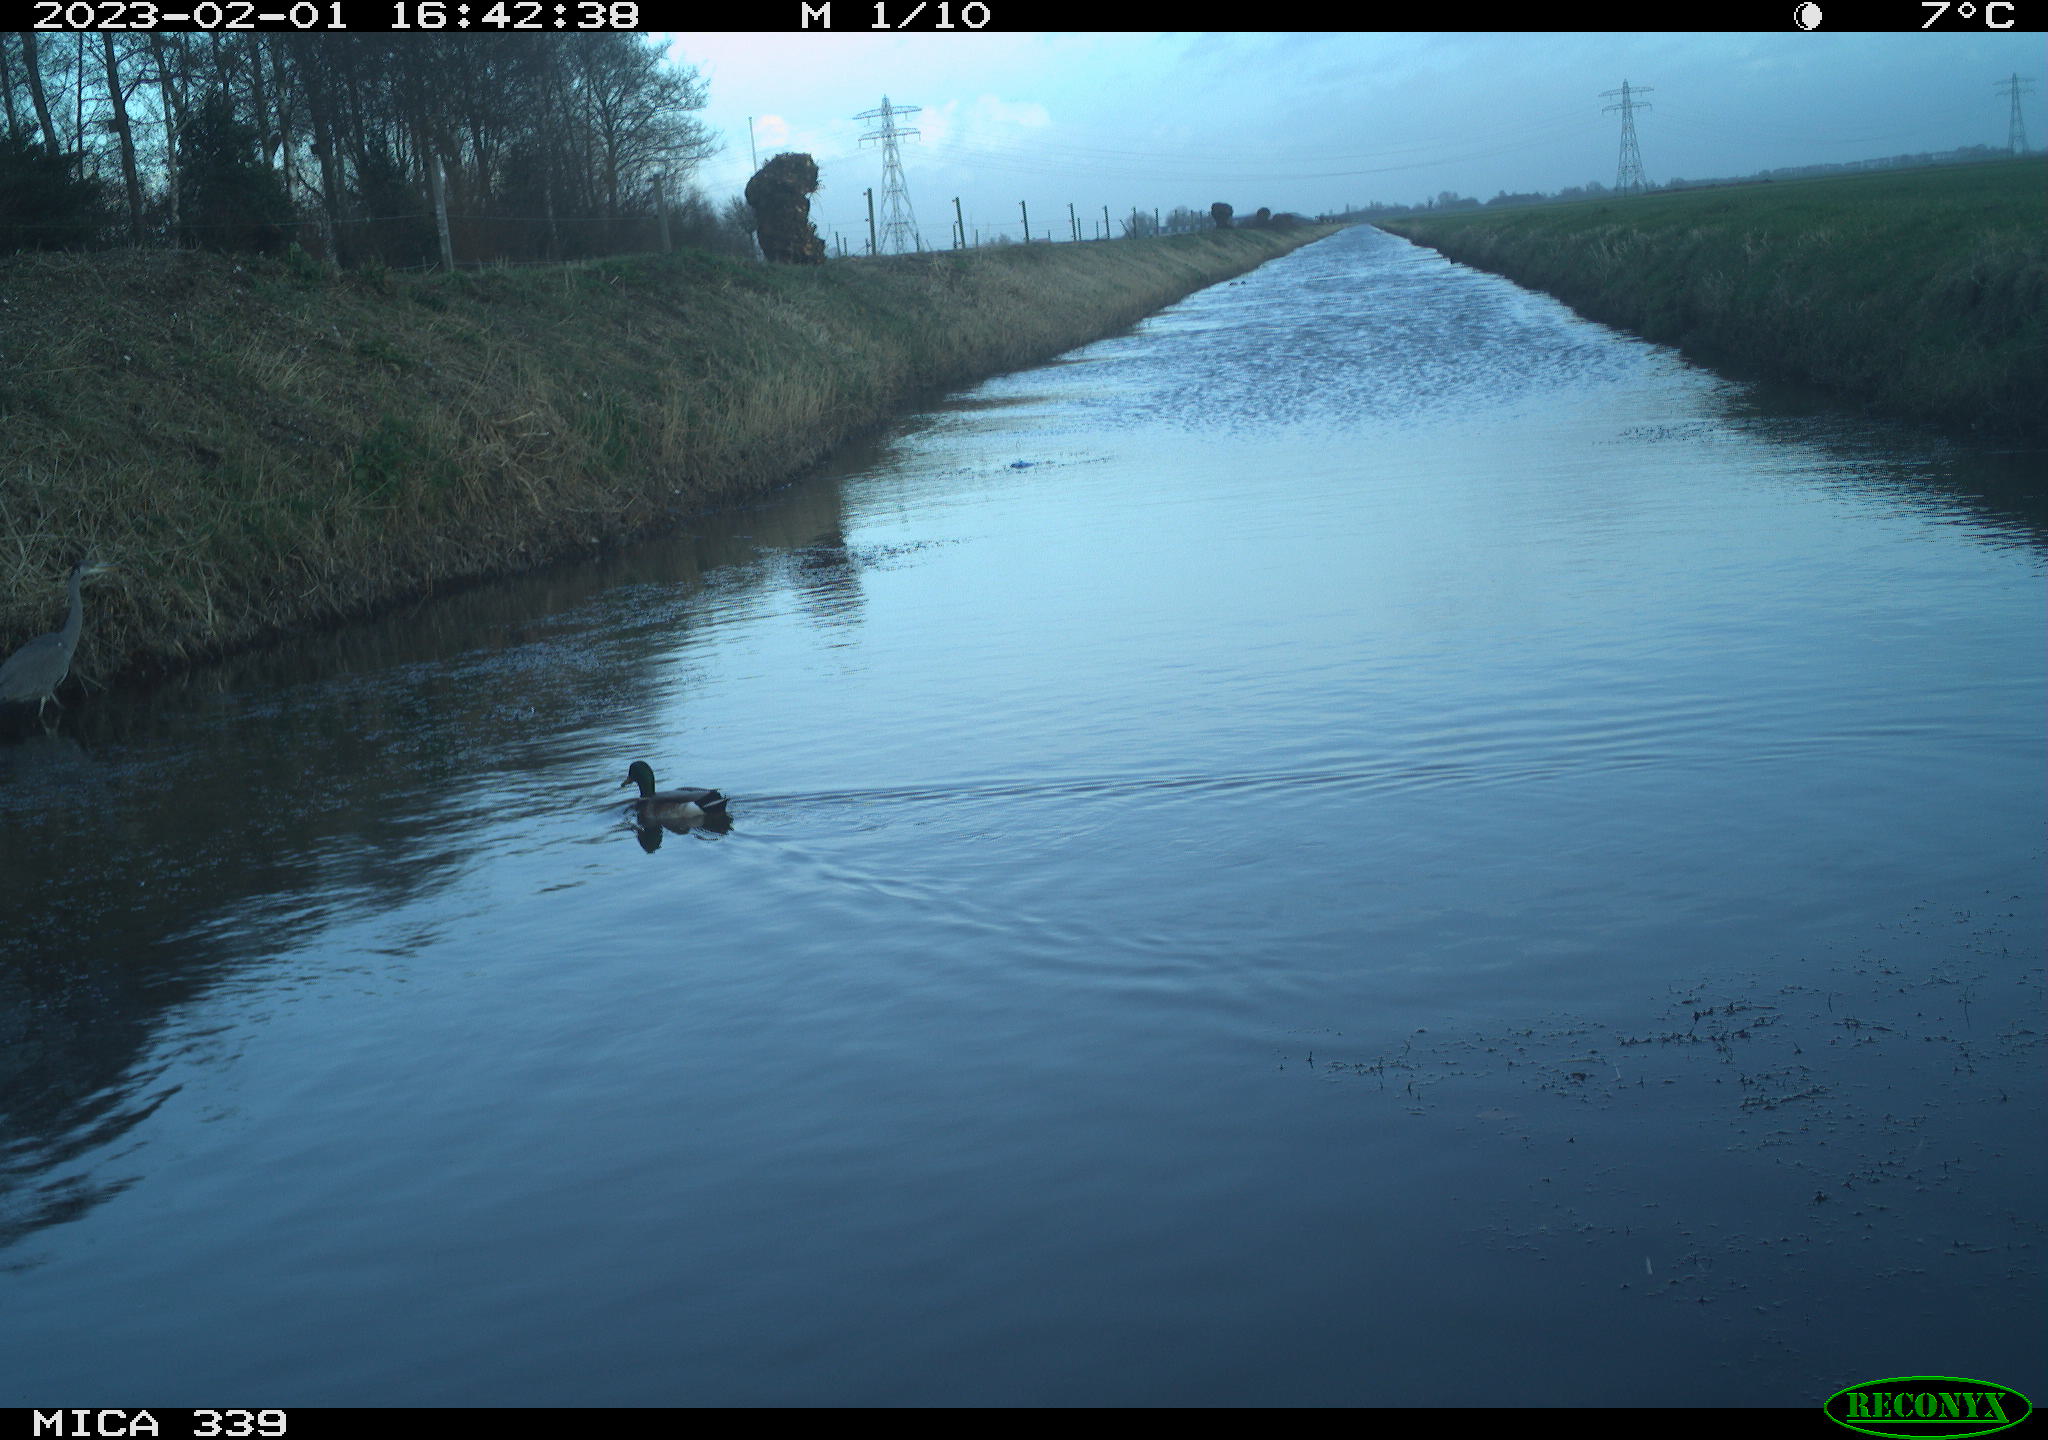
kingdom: Animalia
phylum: Chordata
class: Aves
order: Anseriformes
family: Anatidae
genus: Anas
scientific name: Anas
